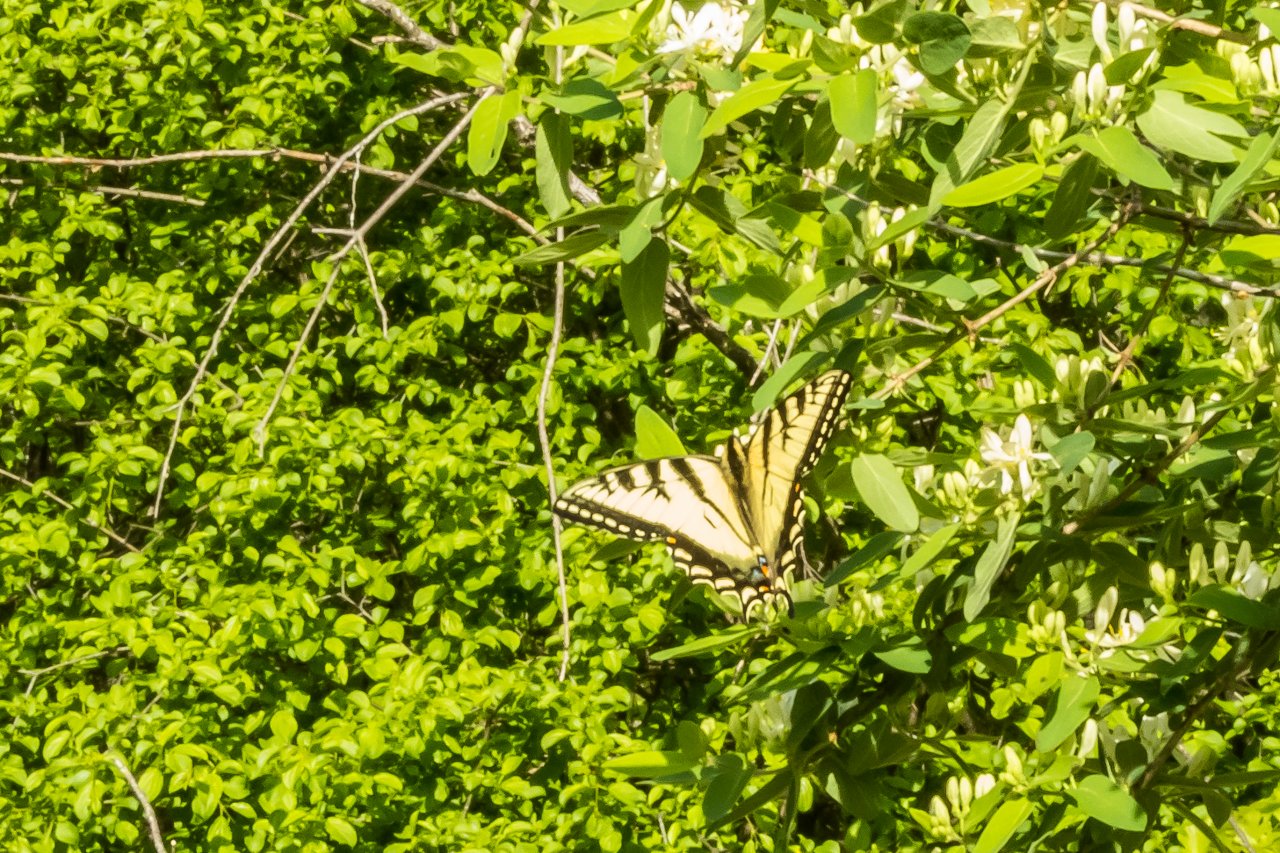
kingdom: Animalia
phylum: Arthropoda
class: Insecta
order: Lepidoptera
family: Papilionidae
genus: Pterourus
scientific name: Pterourus canadensis
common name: Canadian Tiger Swallowtail
